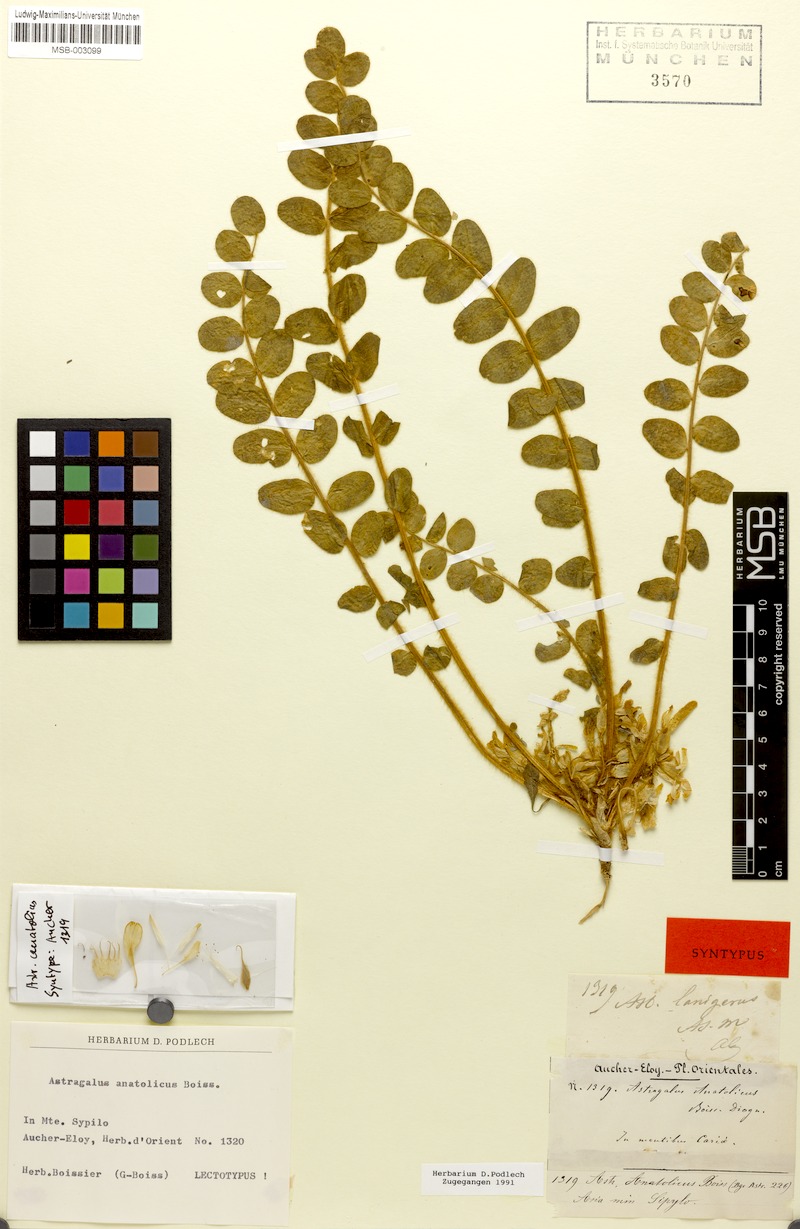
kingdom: Plantae
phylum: Tracheophyta
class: Magnoliopsida
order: Fabales
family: Fabaceae
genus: Astragalus
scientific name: Astragalus angustiflorus
